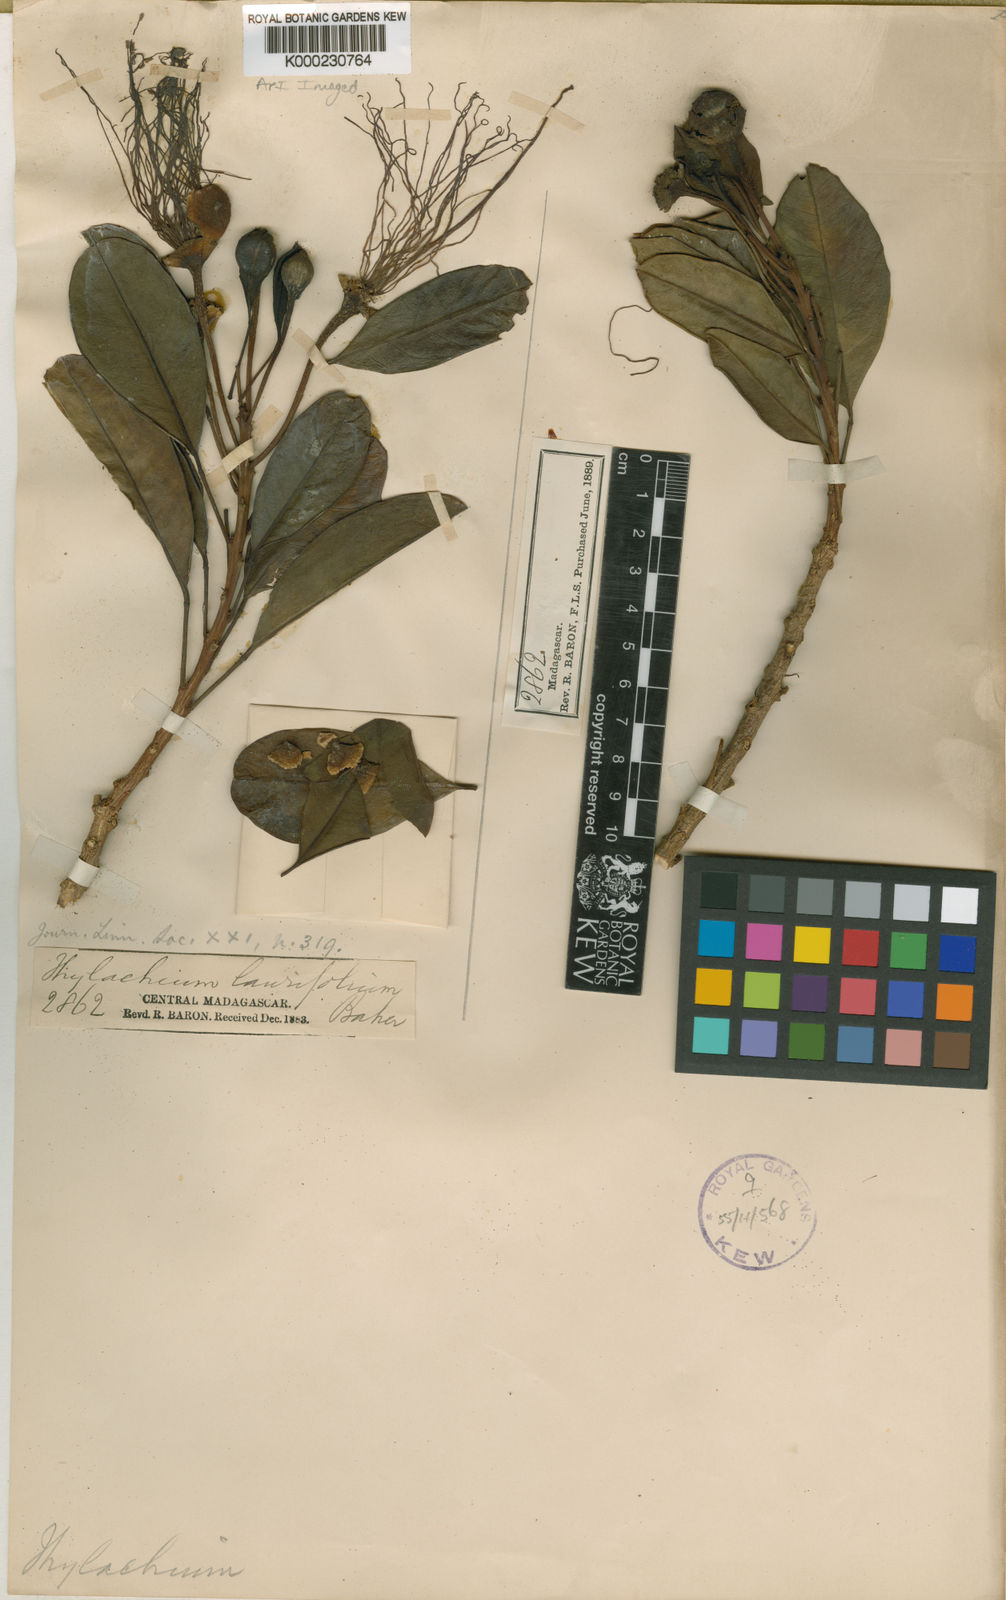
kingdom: Plantae
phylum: Tracheophyta
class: Magnoliopsida
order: Brassicales
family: Capparaceae
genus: Thilachium
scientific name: Thilachium laurifolium
